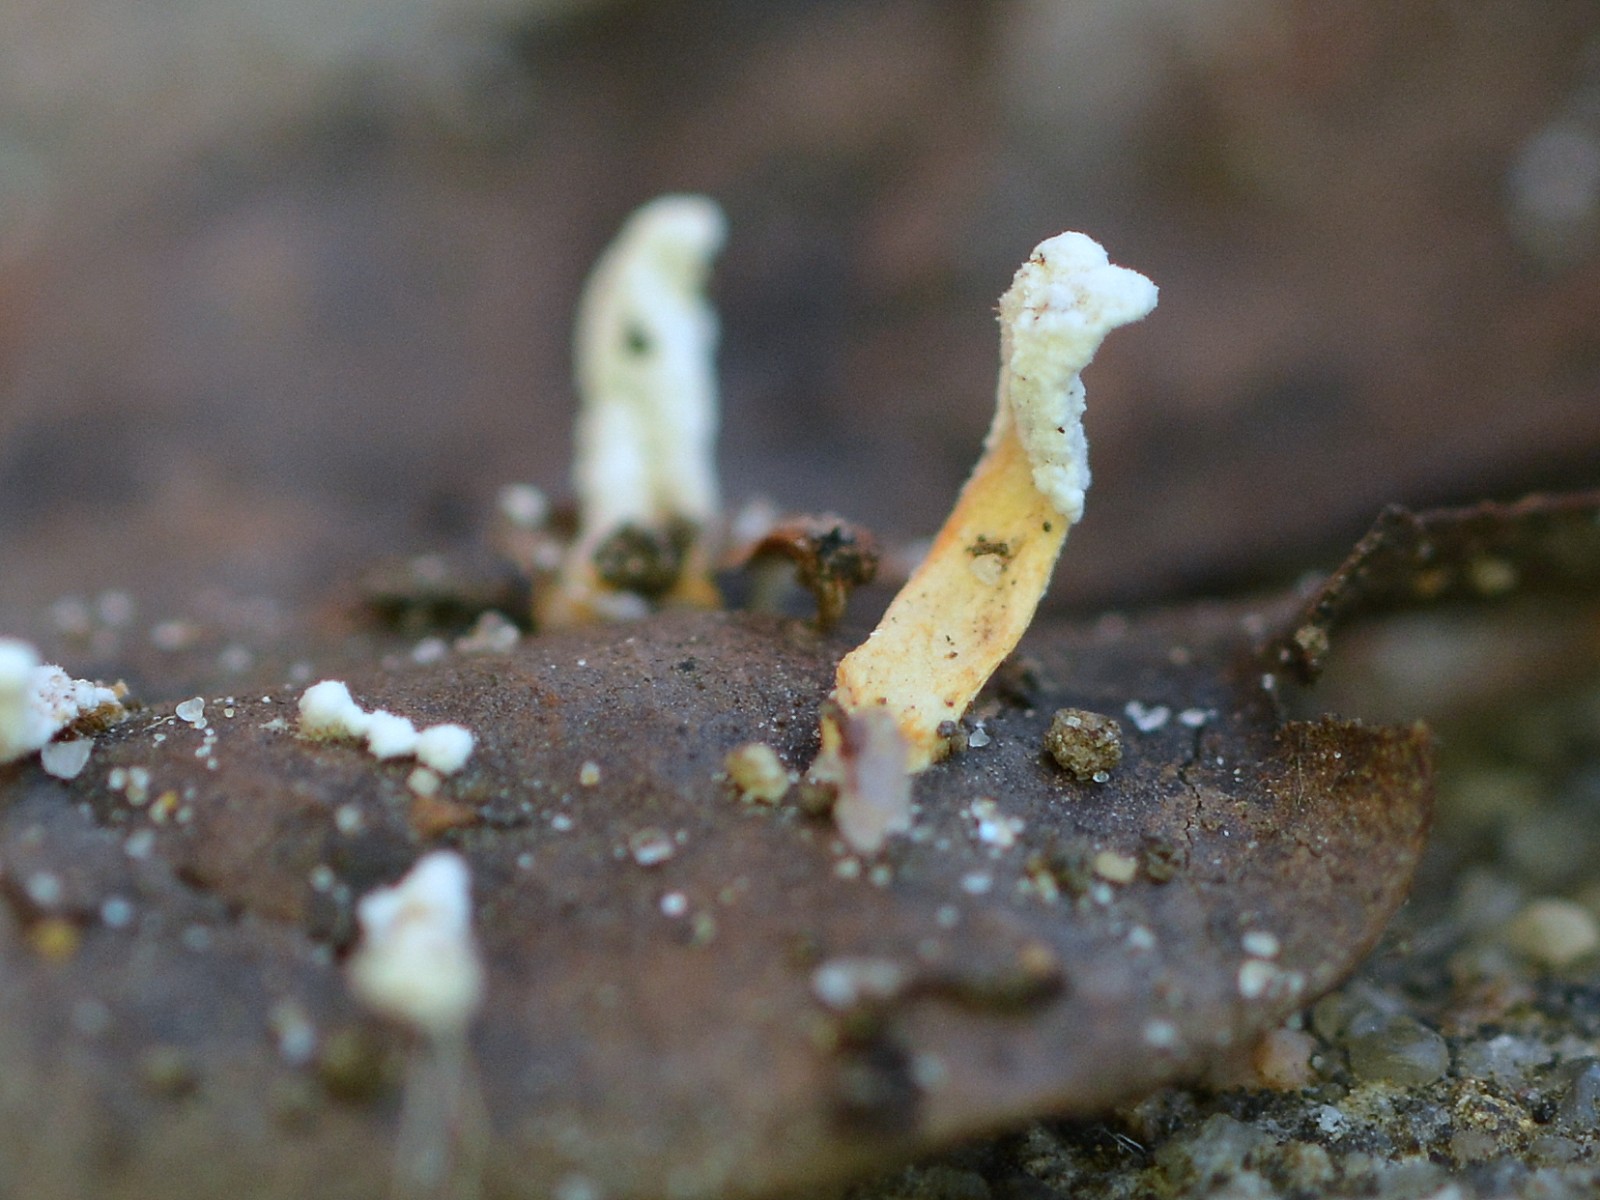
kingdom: Fungi
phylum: Ascomycota
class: Sordariomycetes
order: Hypocreales
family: Cordycipitaceae
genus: Cordyceps
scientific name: Cordyceps farinosa
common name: melet snyltekølle
